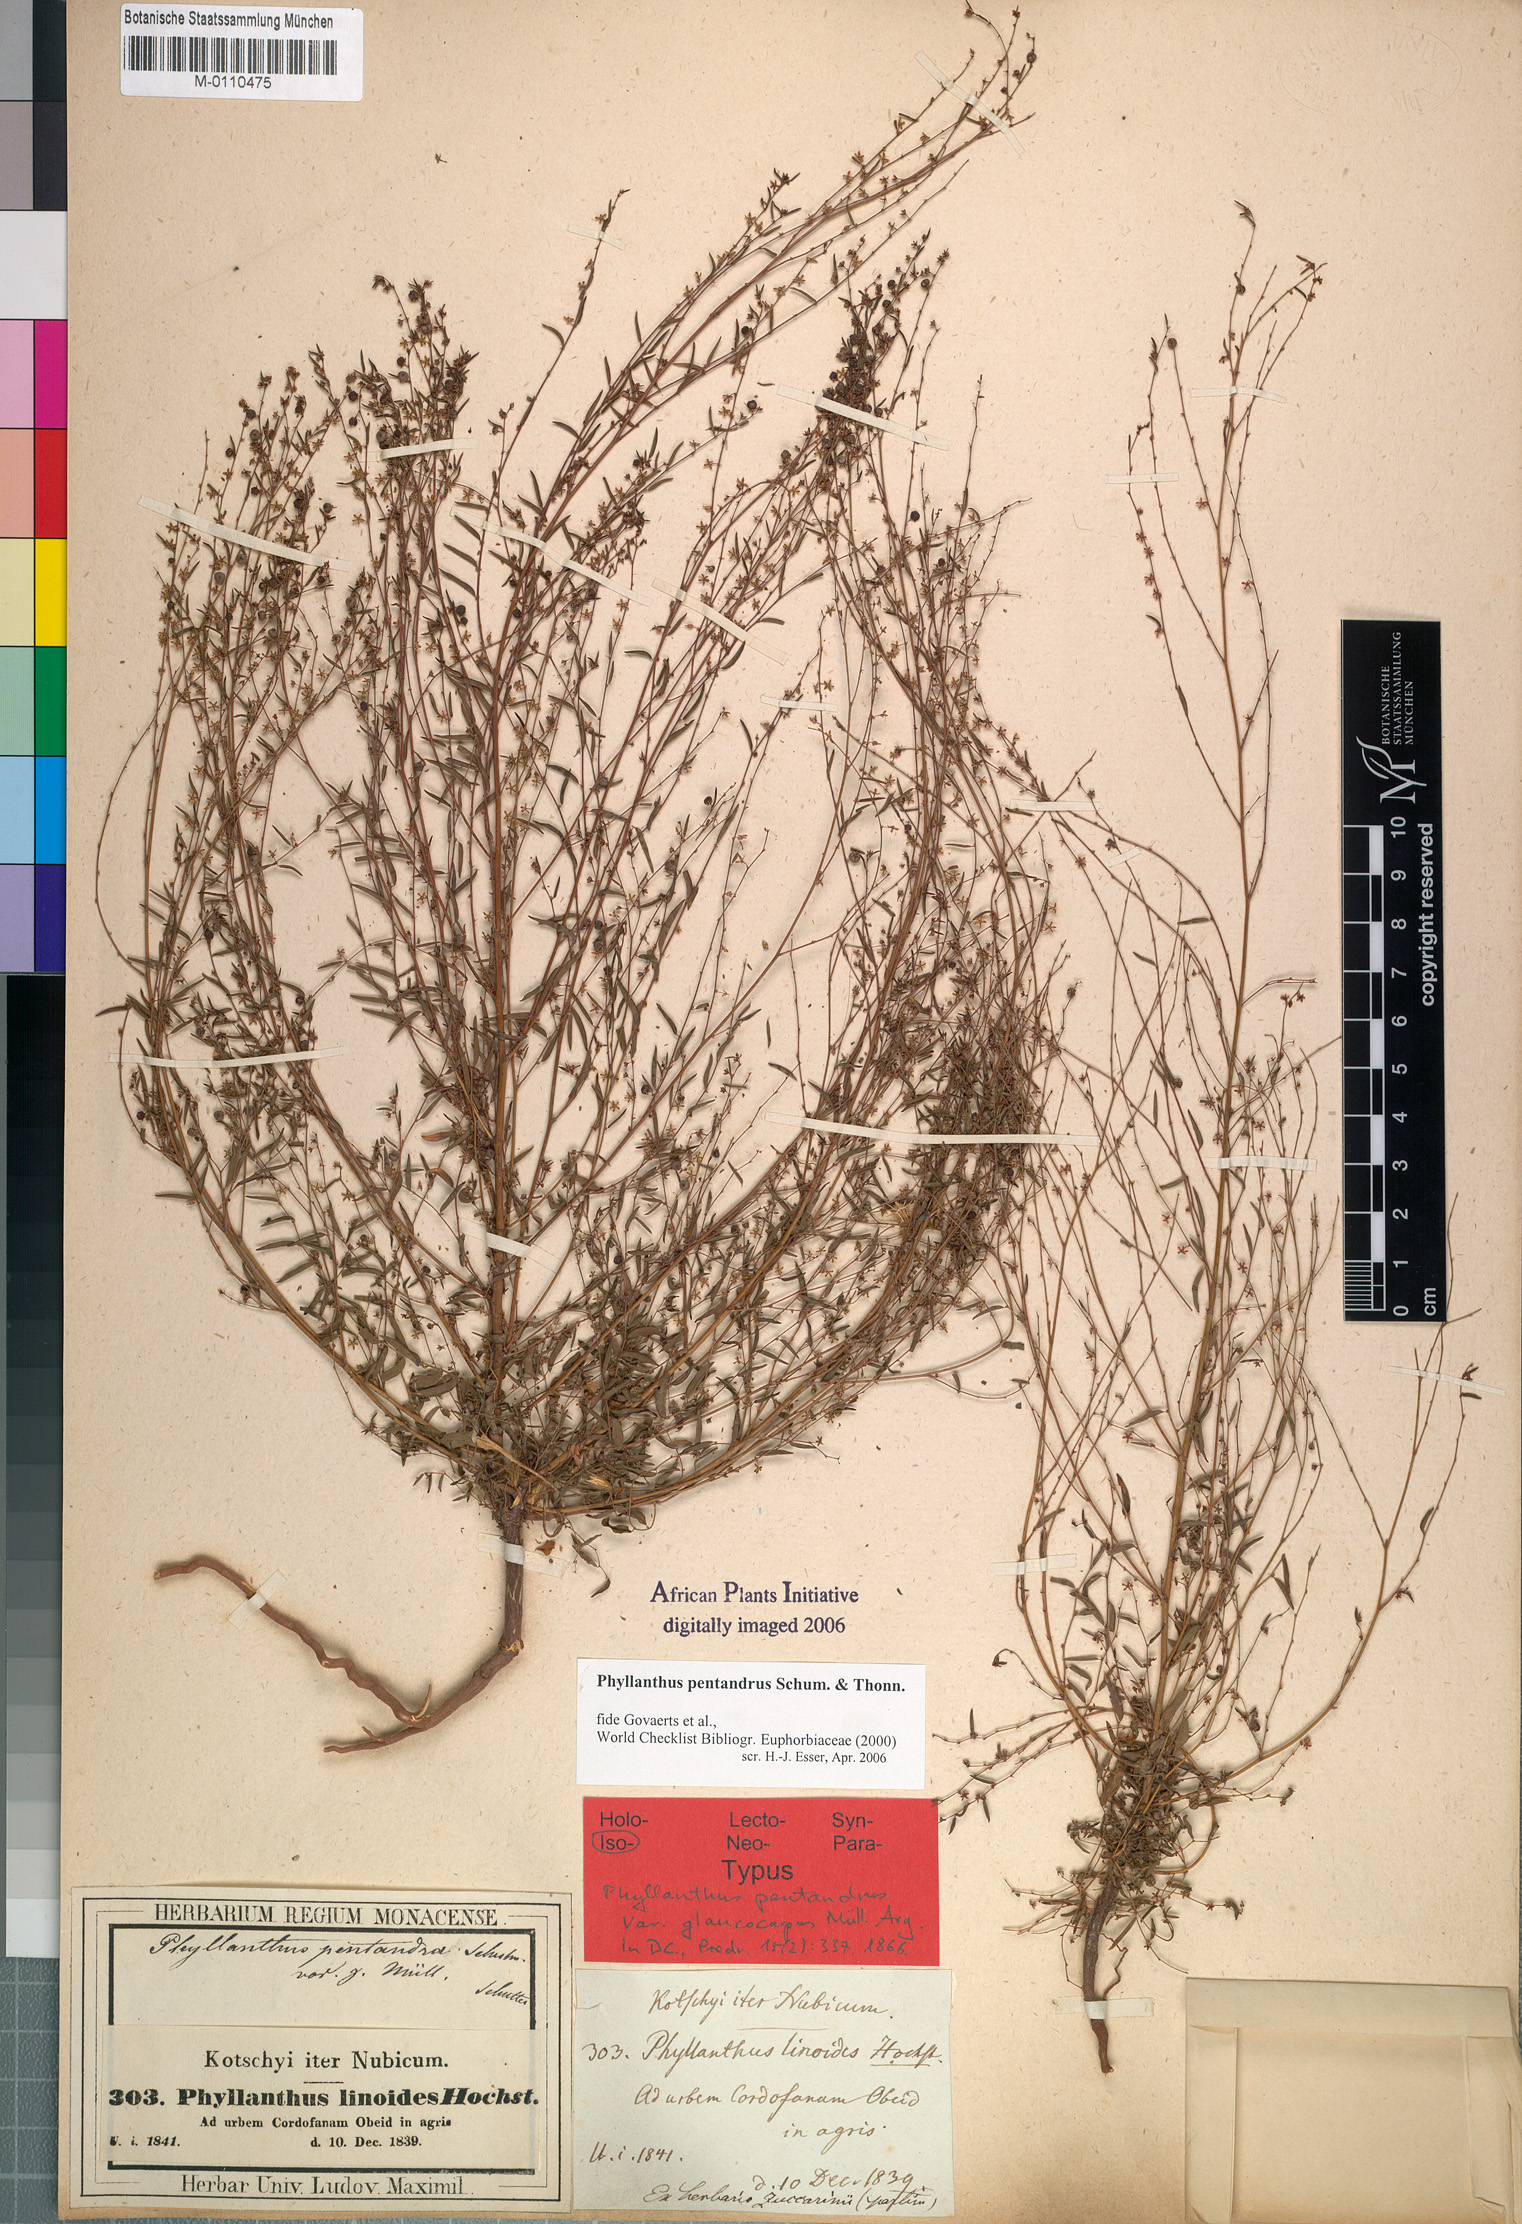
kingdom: Plantae
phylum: Tracheophyta
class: Magnoliopsida
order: Malpighiales
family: Phyllanthaceae
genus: Phyllanthus
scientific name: Phyllanthus pentandrus
